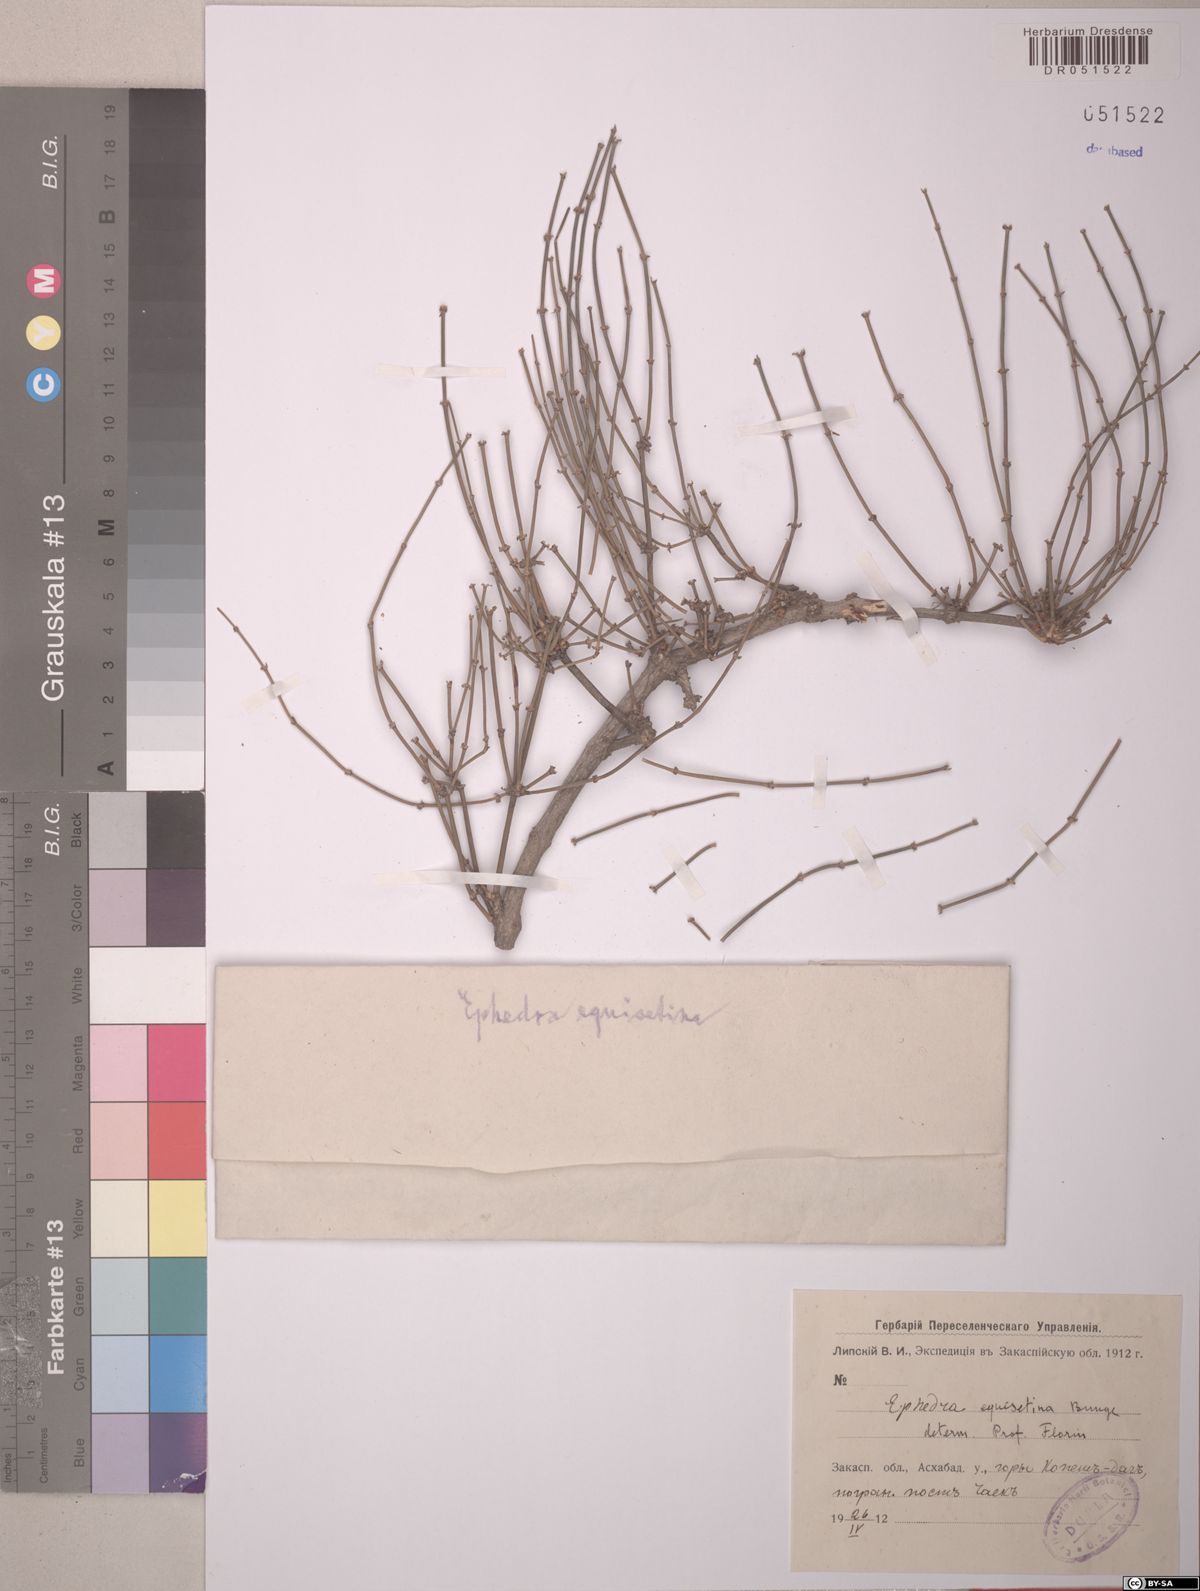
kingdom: Plantae
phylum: Tracheophyta
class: Gnetopsida
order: Ephedrales
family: Ephedraceae
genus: Ephedra
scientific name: Ephedra equisetina
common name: Mongolian ephedra
